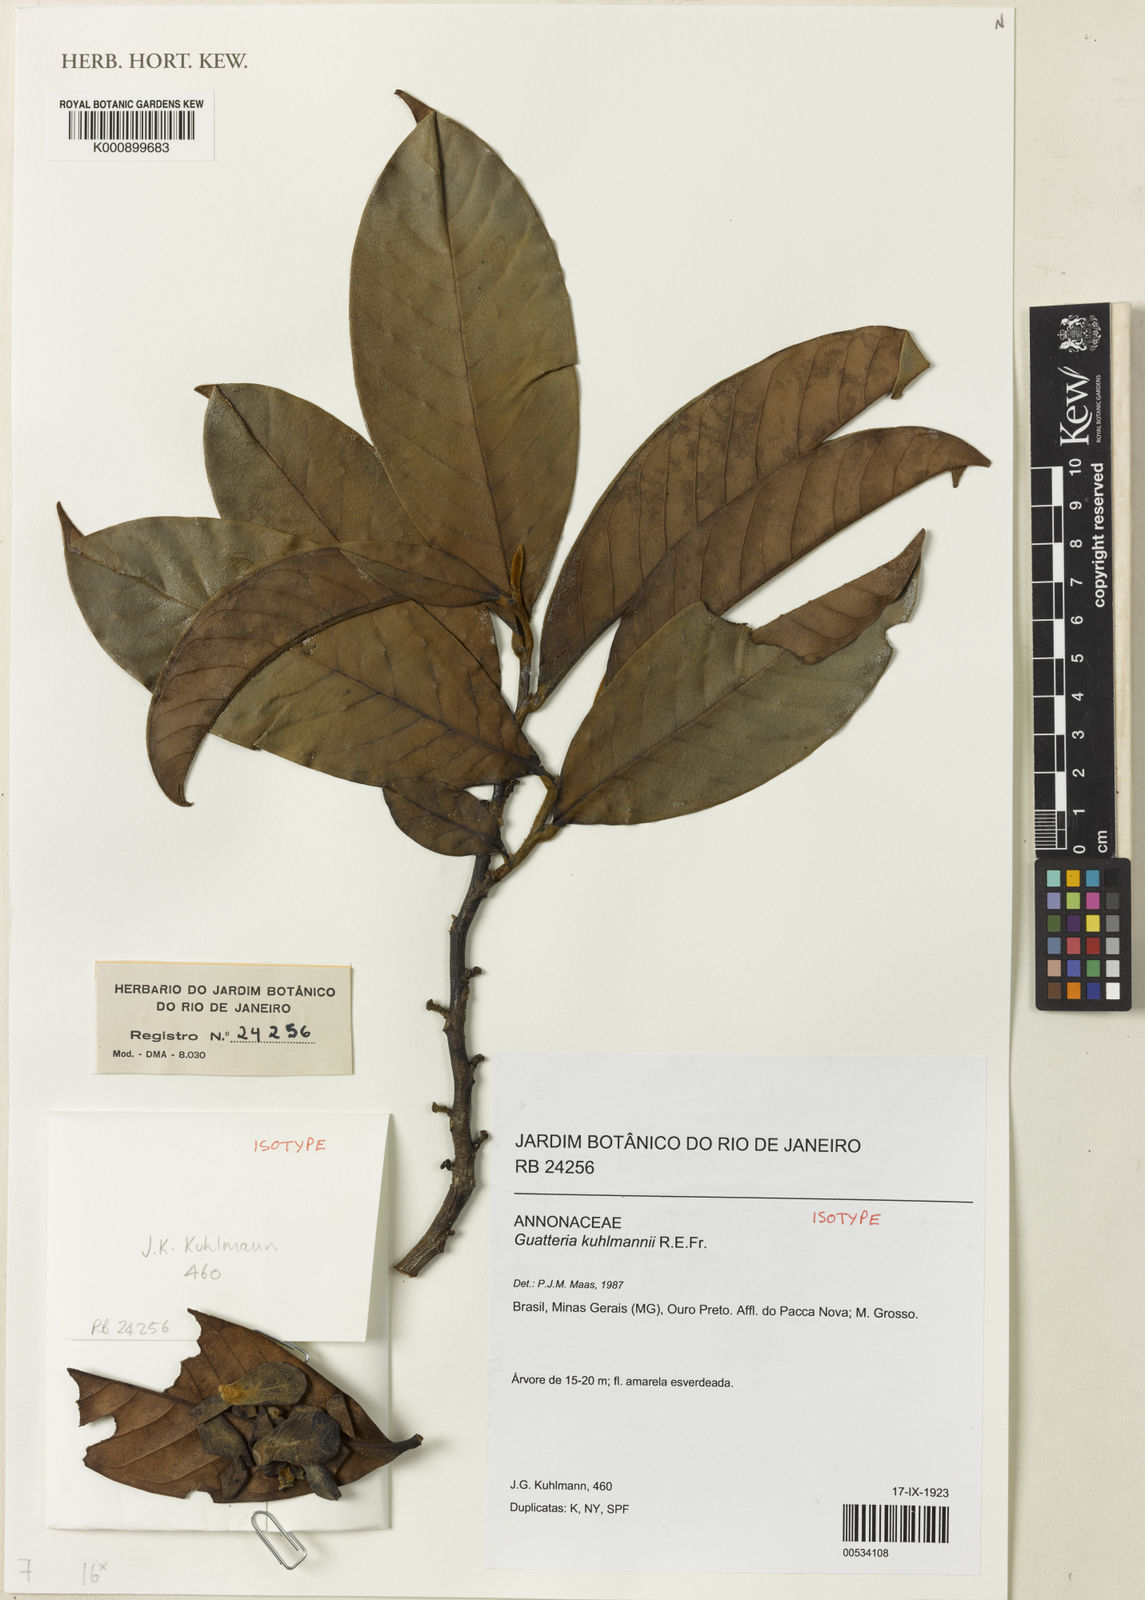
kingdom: Plantae
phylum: Tracheophyta
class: Magnoliopsida
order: Magnoliales
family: Annonaceae
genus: Guatteria
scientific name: Guatteria dura
